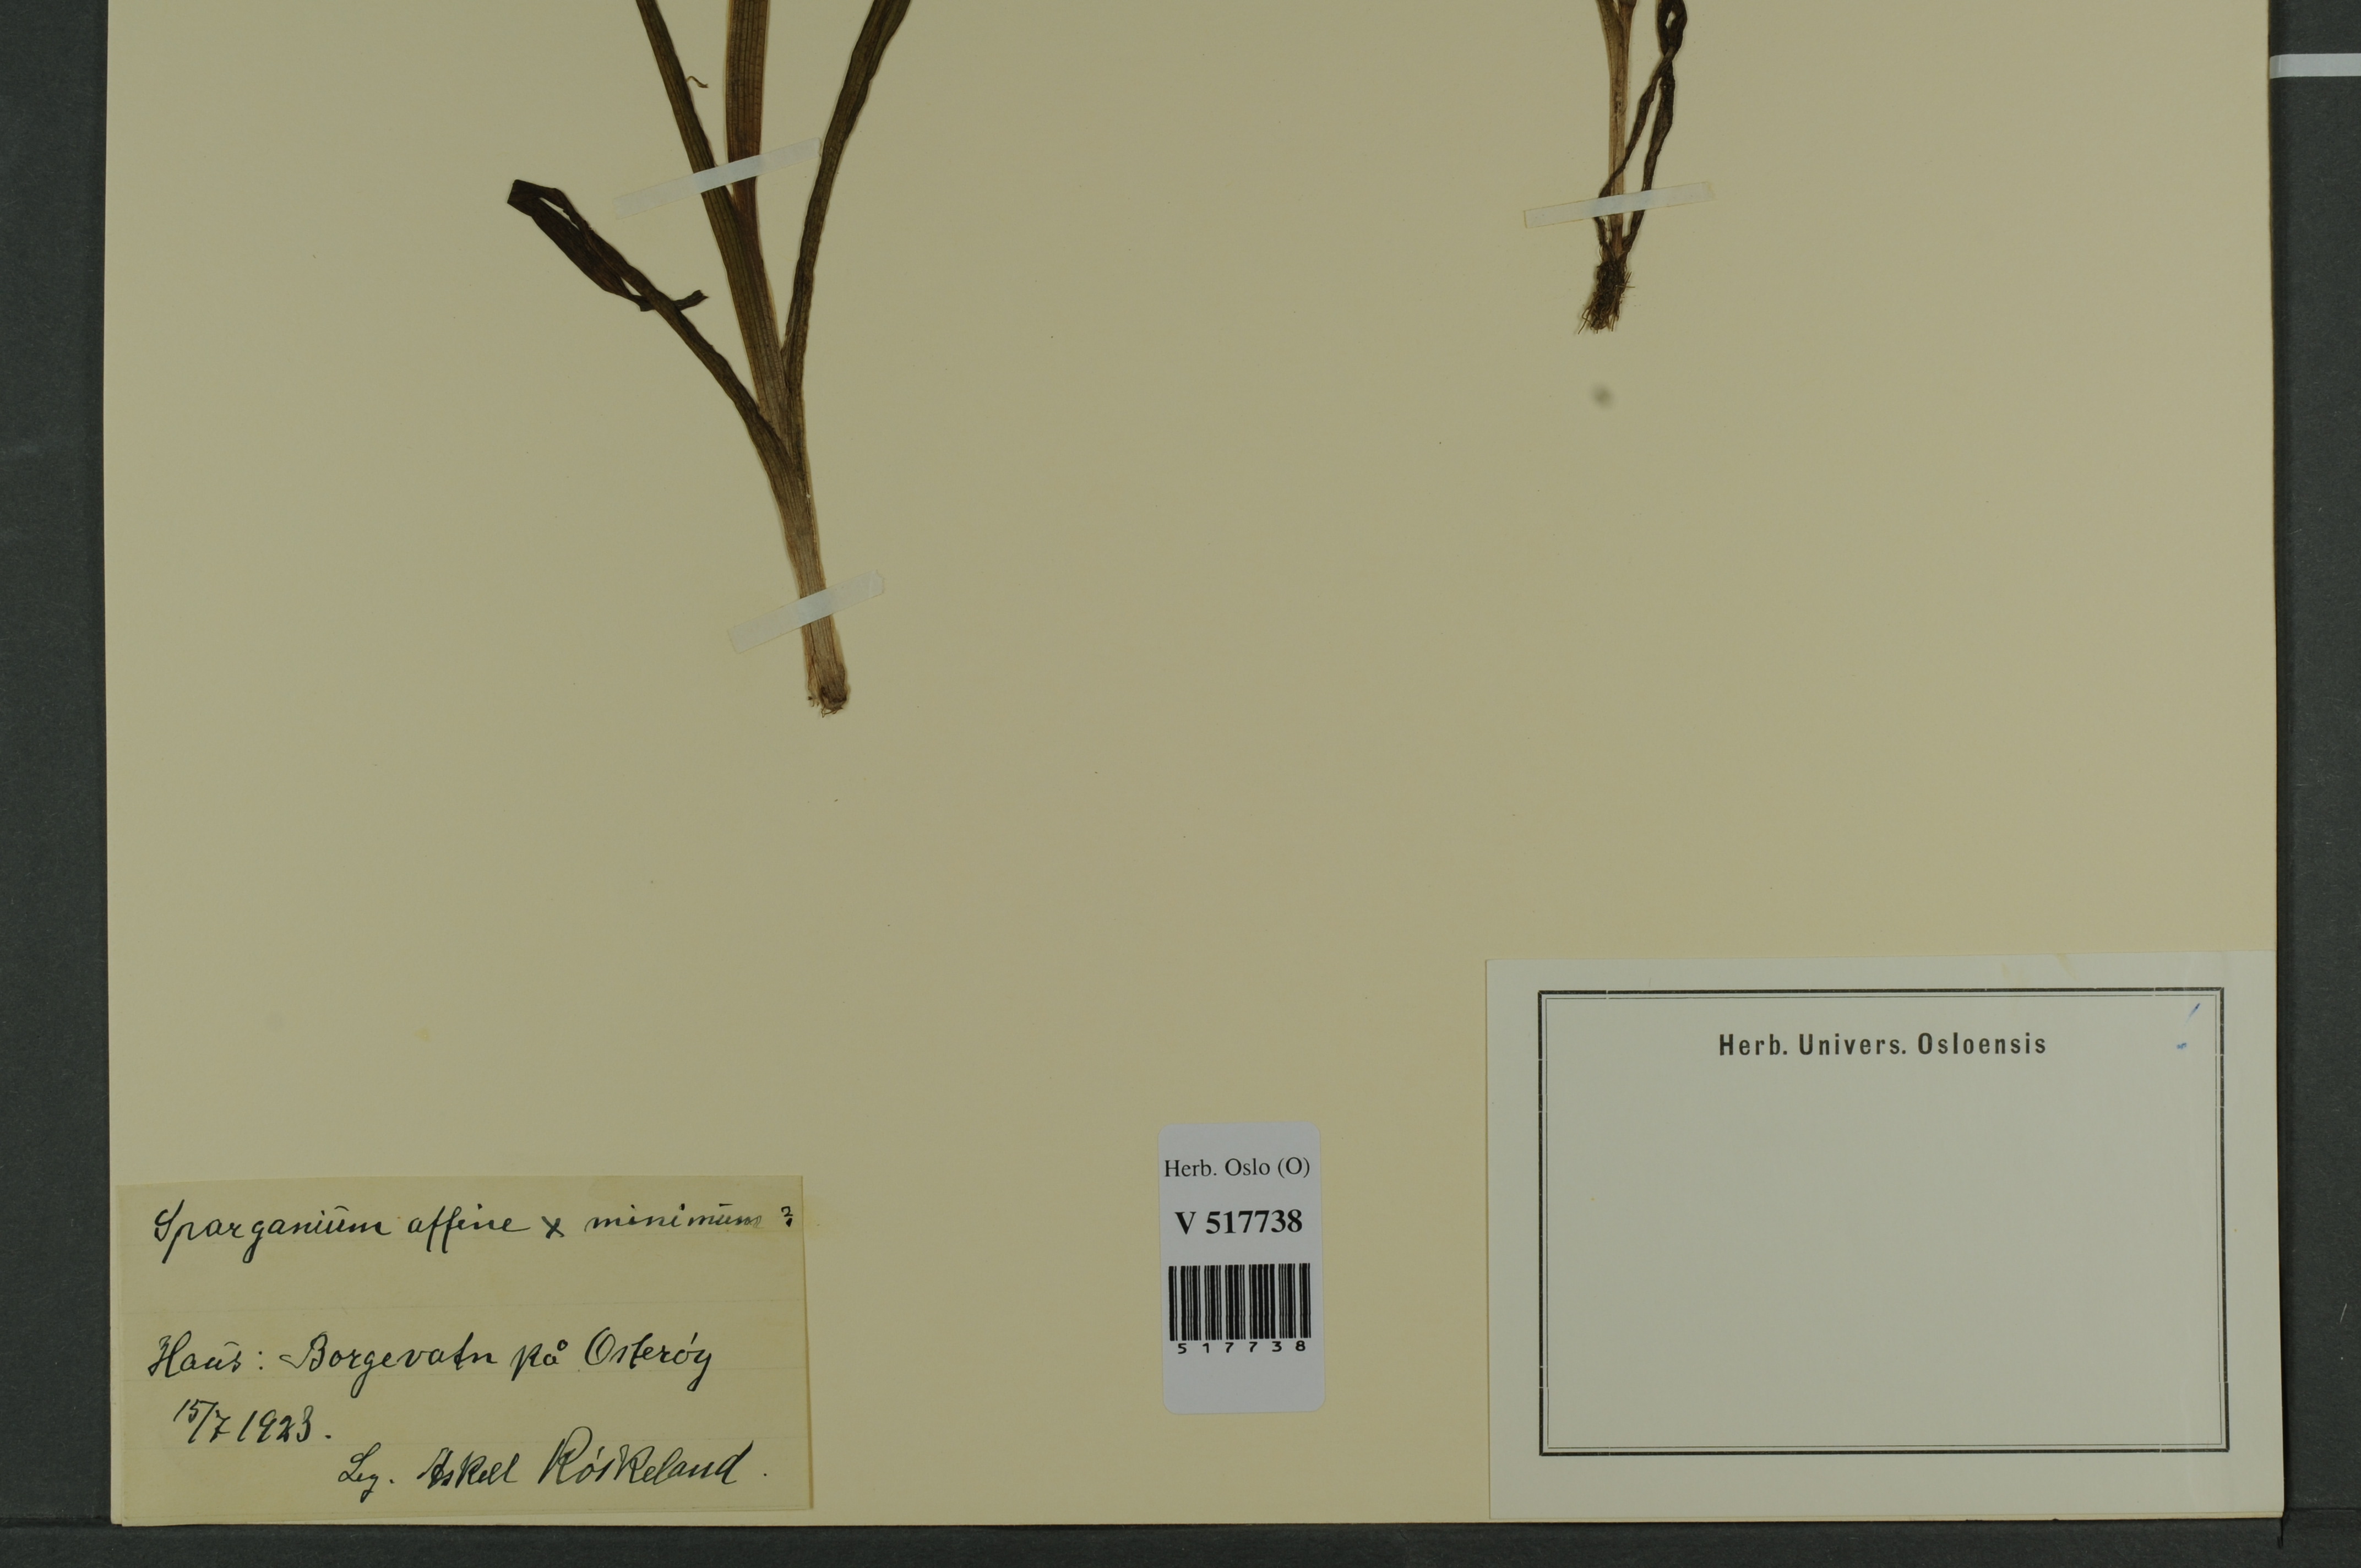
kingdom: Plantae
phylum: Tracheophyta
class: Liliopsida
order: Poales
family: Typhaceae
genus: Sparganium
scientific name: Sparganium
